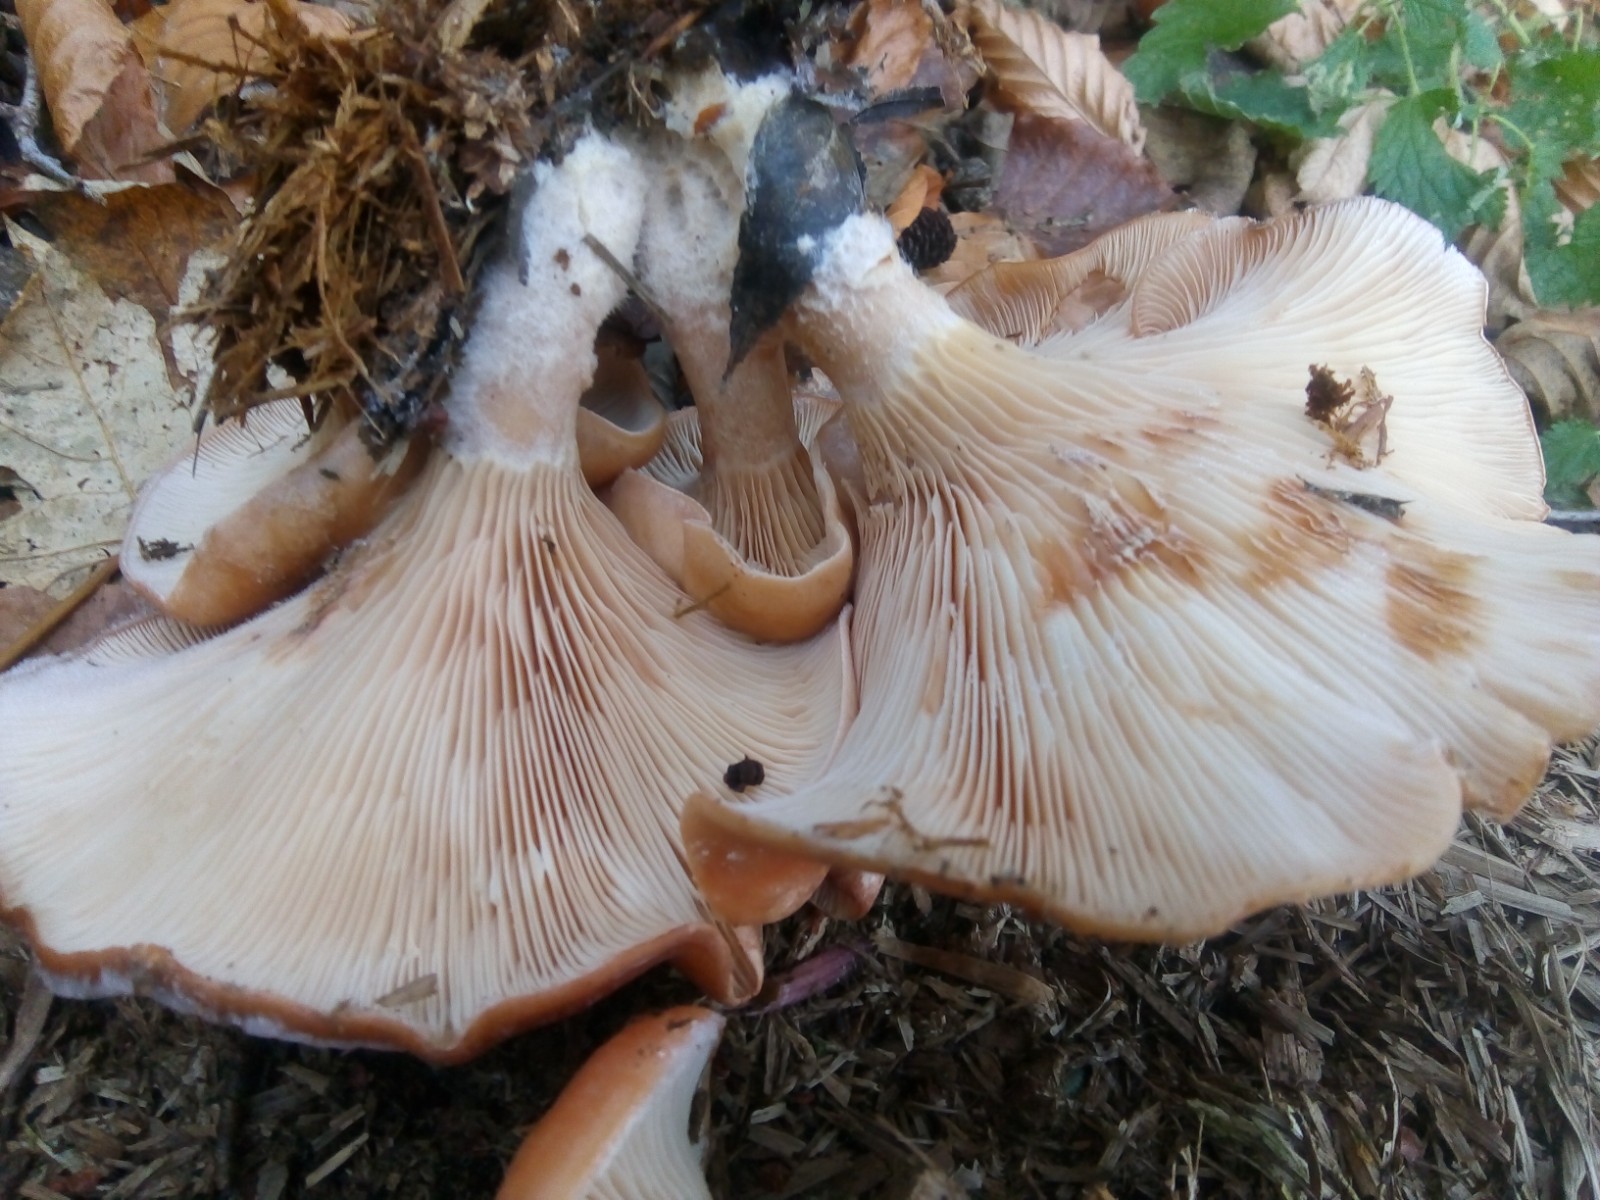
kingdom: Fungi
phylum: Basidiomycota
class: Agaricomycetes
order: Agaricales
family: Tricholomataceae
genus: Paralepista
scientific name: Paralepista flaccida
